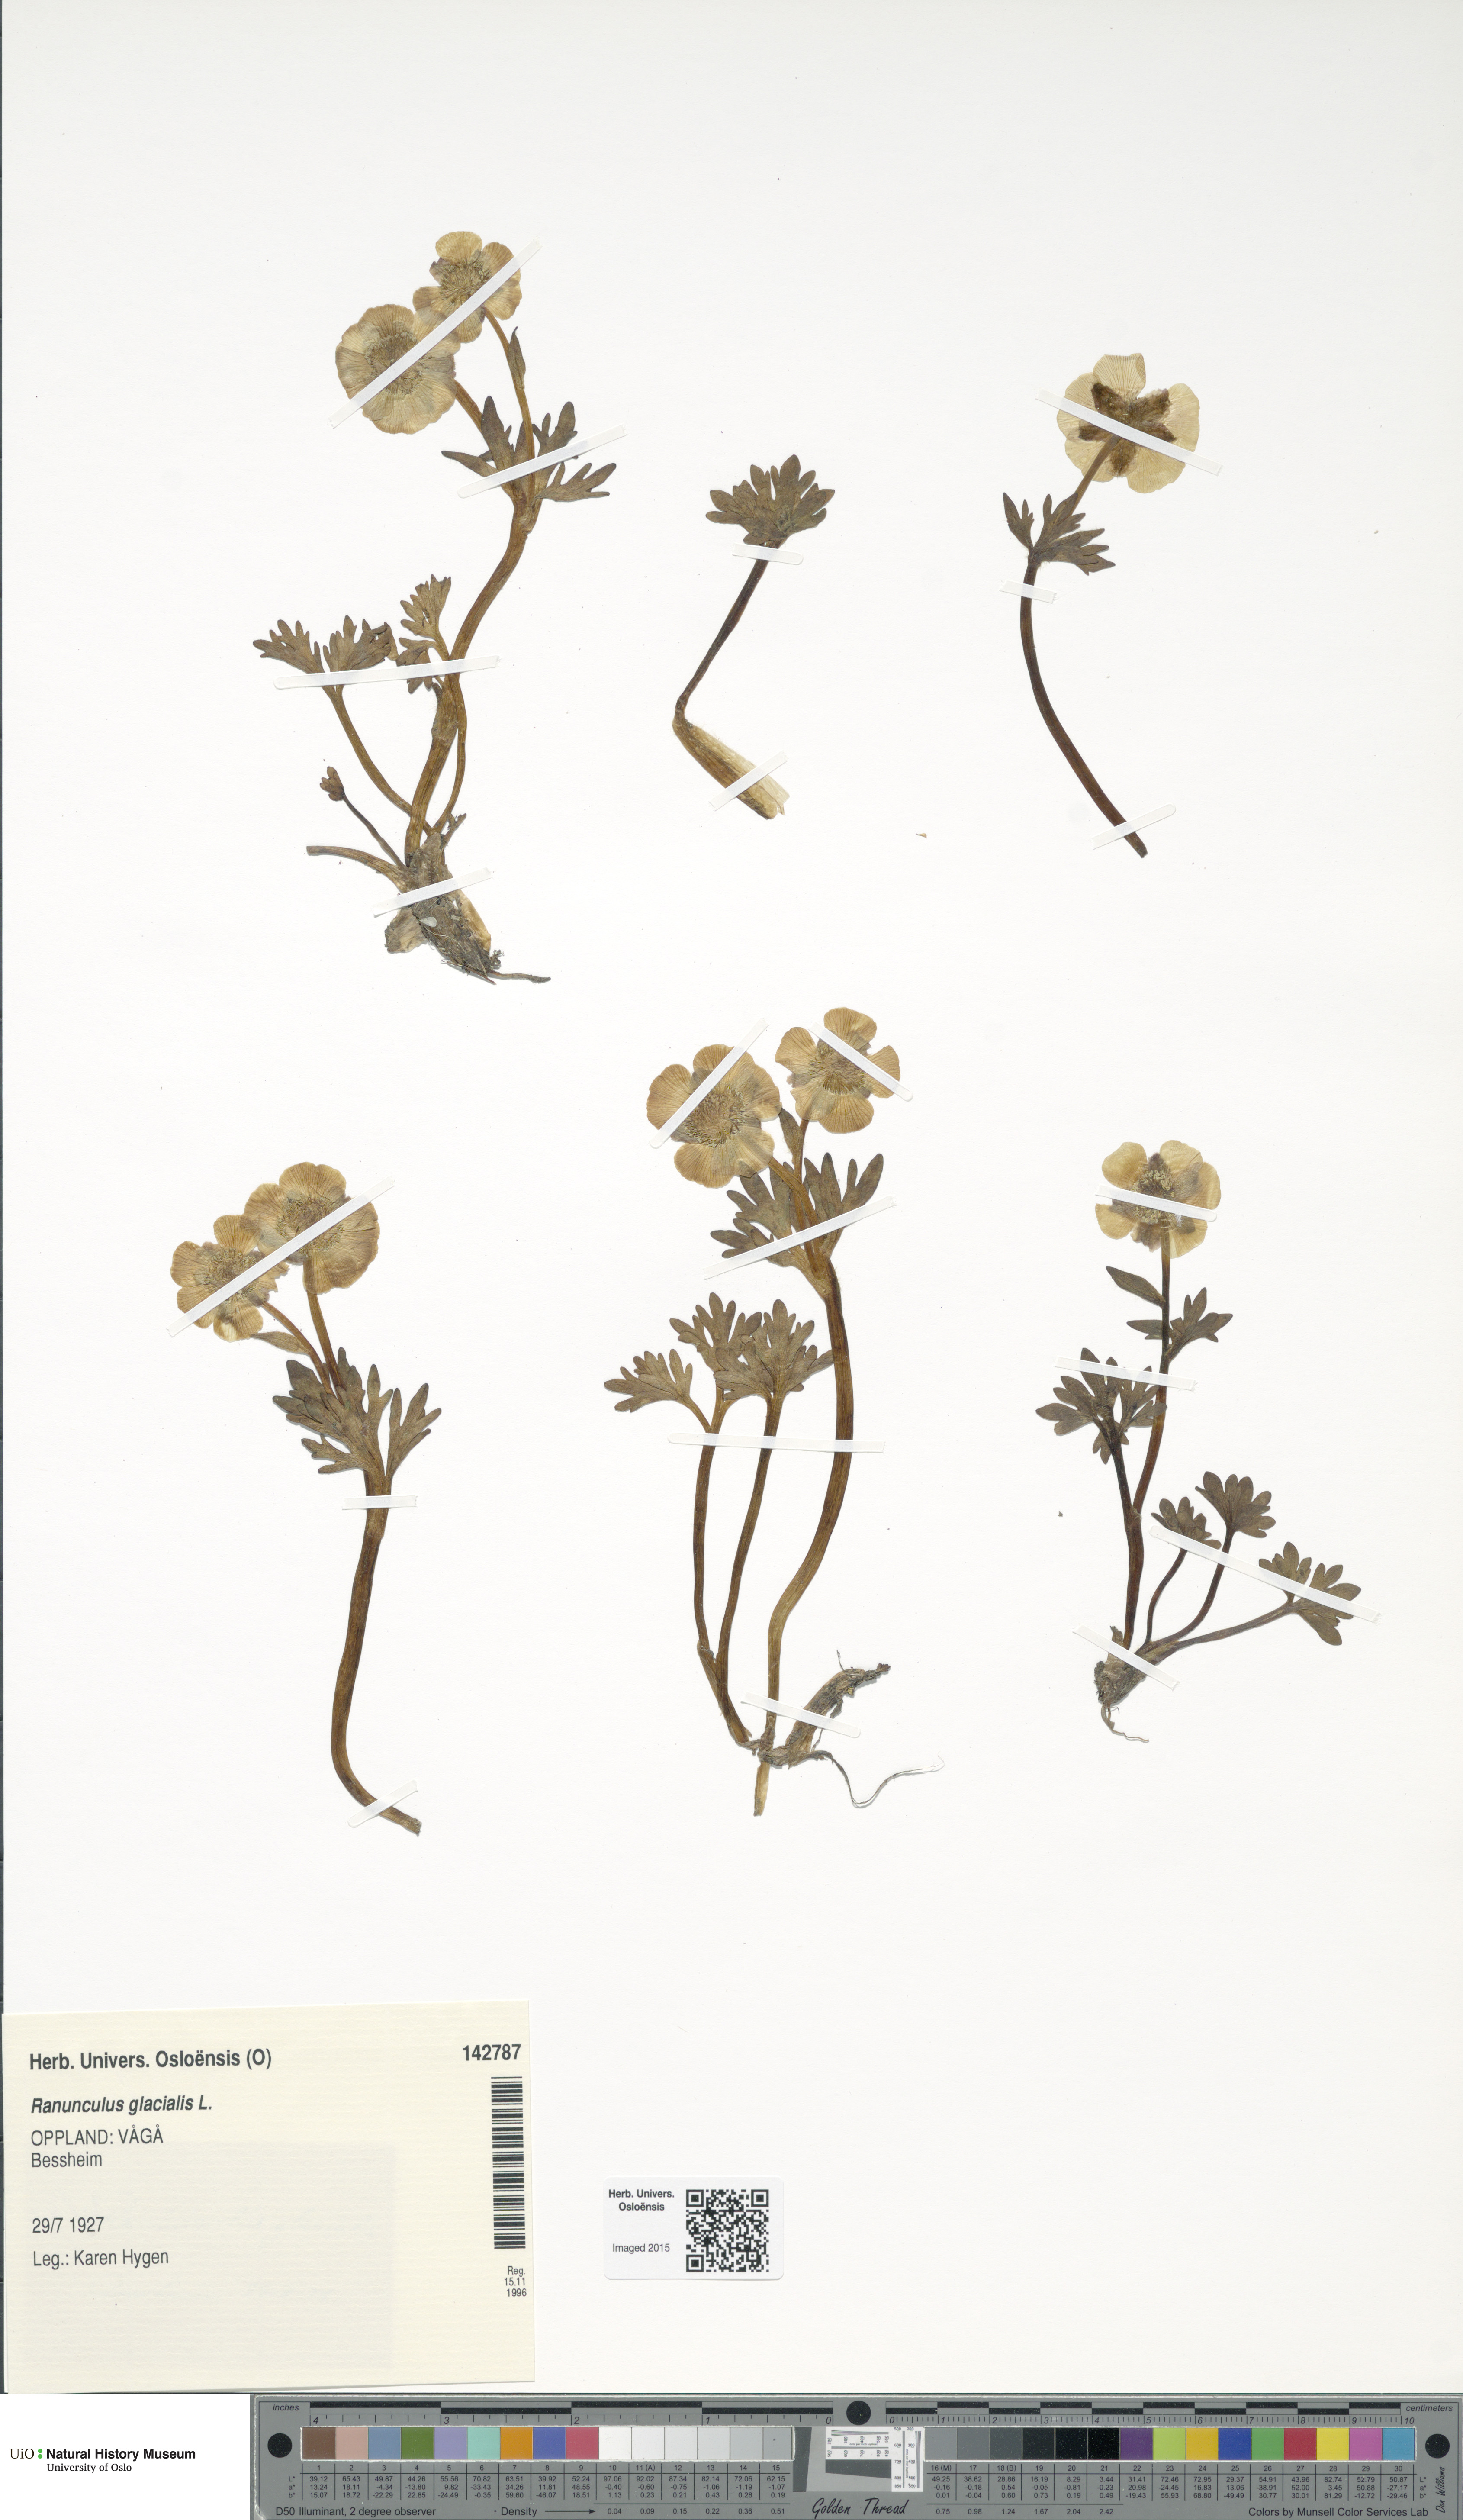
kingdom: Plantae
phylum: Tracheophyta
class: Magnoliopsida
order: Ranunculales
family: Ranunculaceae
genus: Ranunculus
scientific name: Ranunculus glacialis
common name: Glacier buttercup
